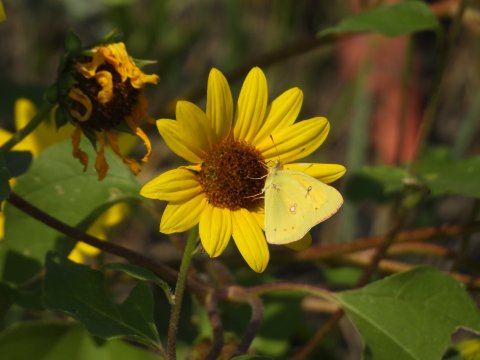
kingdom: Animalia
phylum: Arthropoda
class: Insecta
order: Lepidoptera
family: Pieridae
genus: Colias
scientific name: Colias eurytheme
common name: Orange Sulphur
